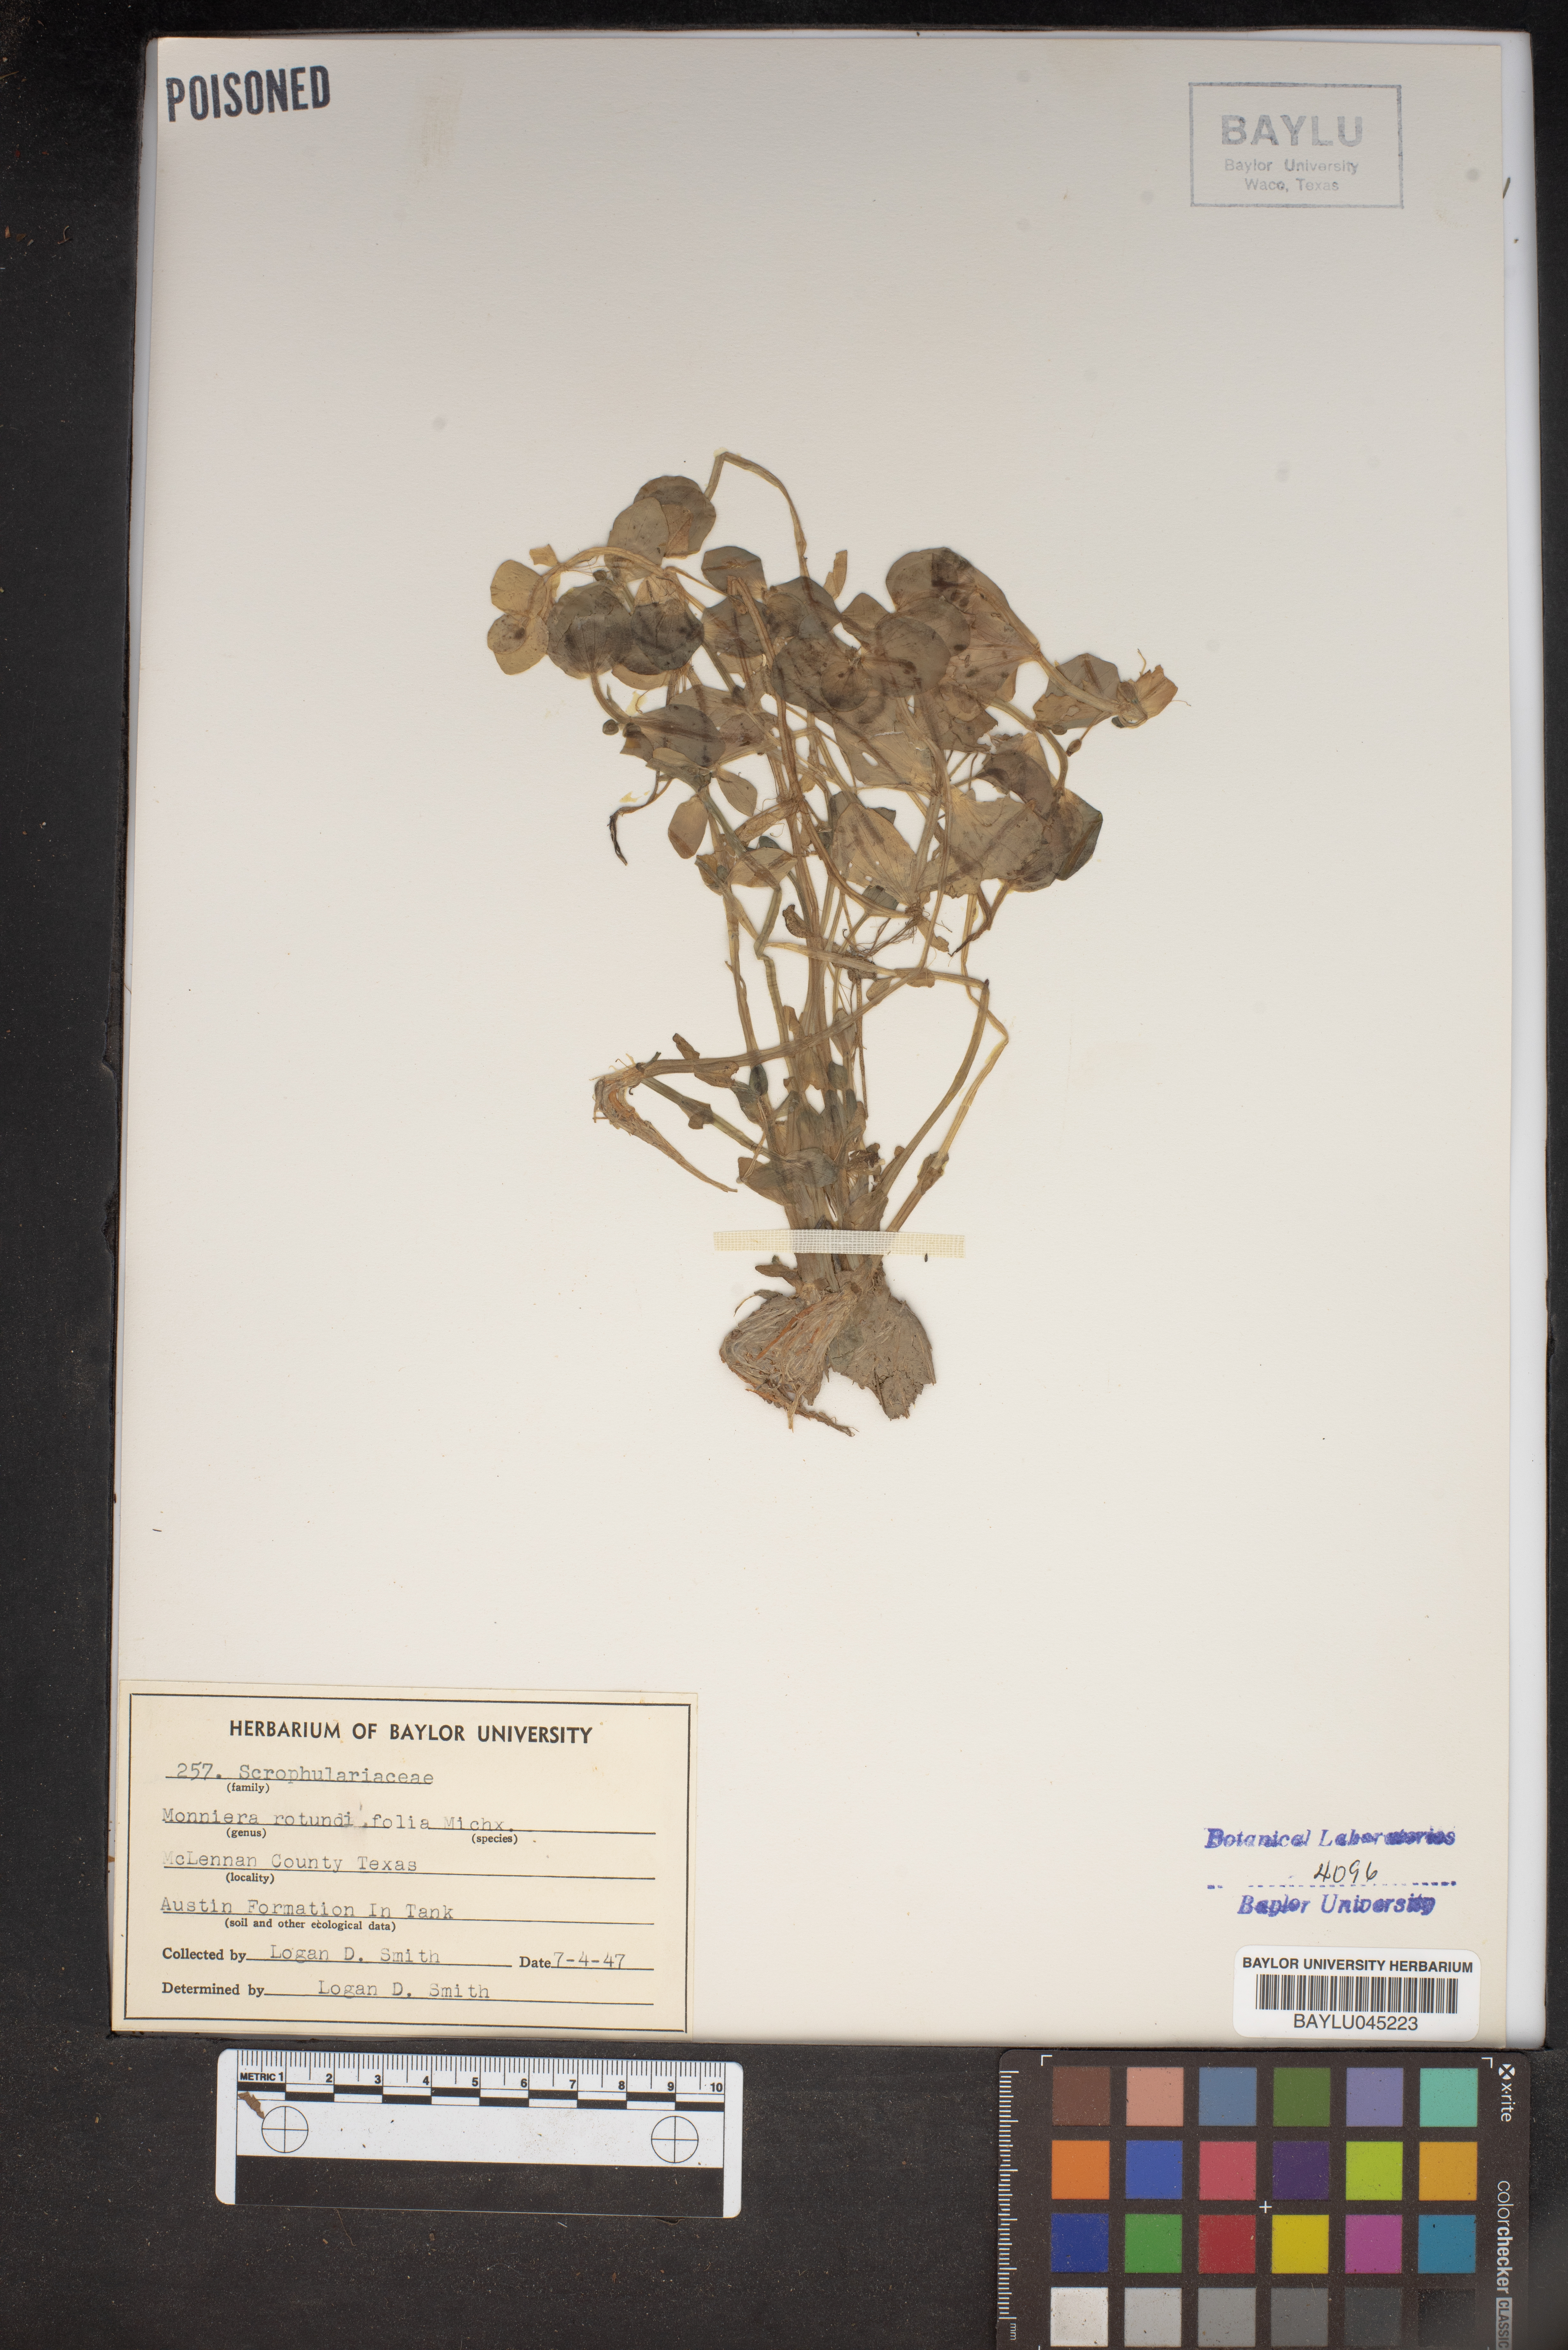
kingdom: Plantae
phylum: Tracheophyta
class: Magnoliopsida
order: Lamiales
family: Plantaginaceae
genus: Bacopa
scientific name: Bacopa rotundifolia
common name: Disc water hyssop
